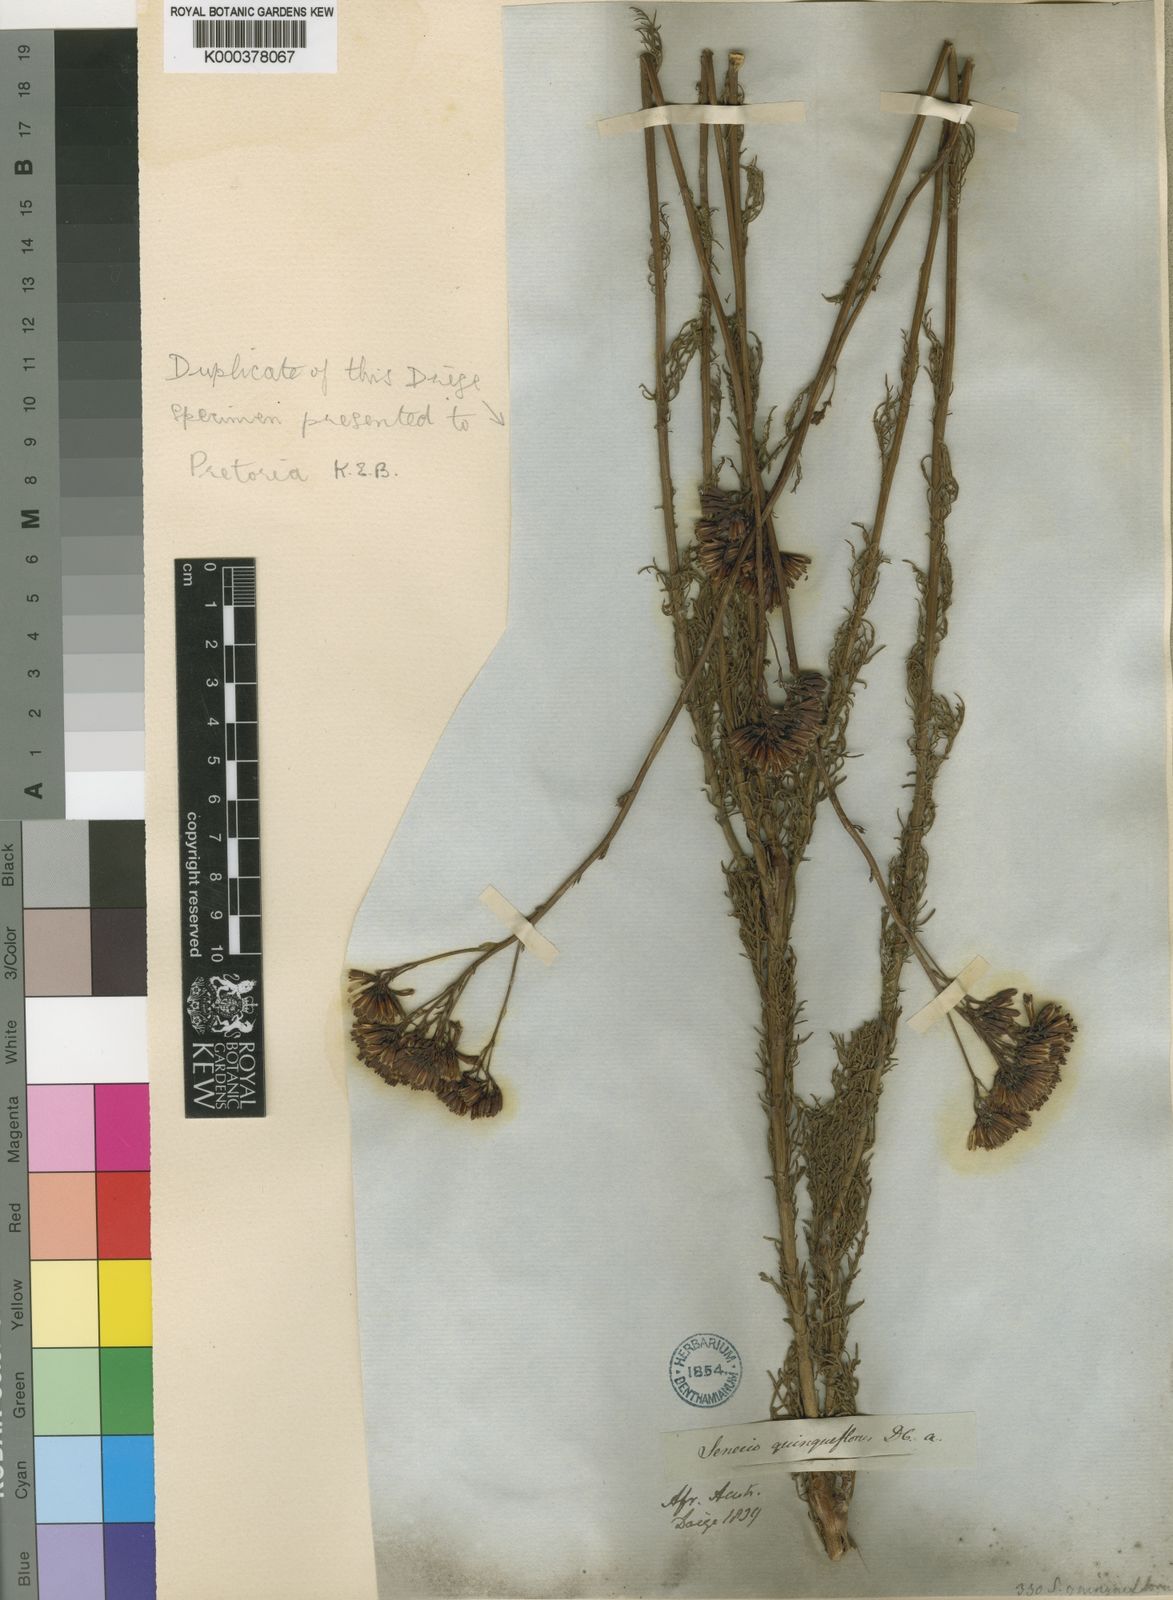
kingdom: Plantae
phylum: Tracheophyta
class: Magnoliopsida
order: Asterales
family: Asteraceae
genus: Senecio
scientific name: Senecio bipinnatus
